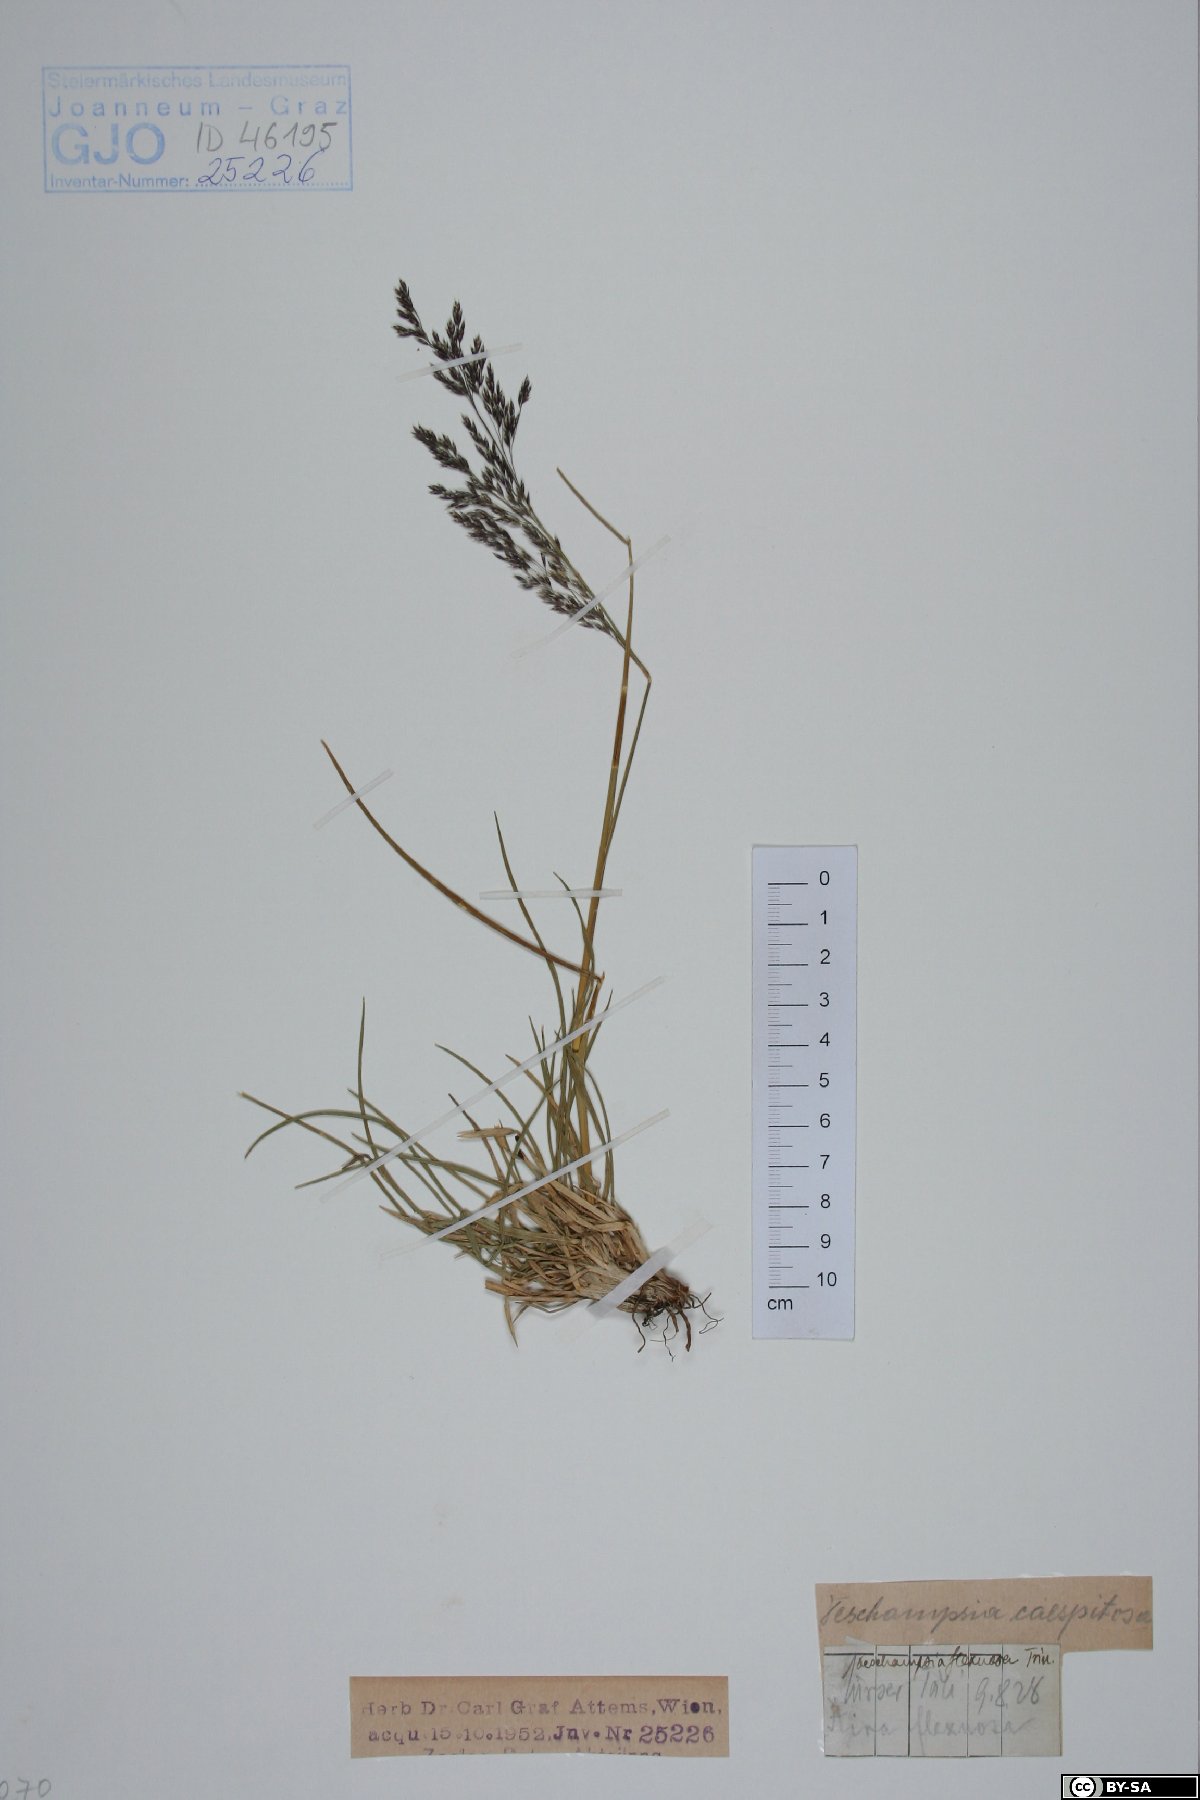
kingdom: Plantae
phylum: Tracheophyta
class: Liliopsida
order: Poales
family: Poaceae
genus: Avenella
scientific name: Avenella flexuosa
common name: Wavy hairgrass
